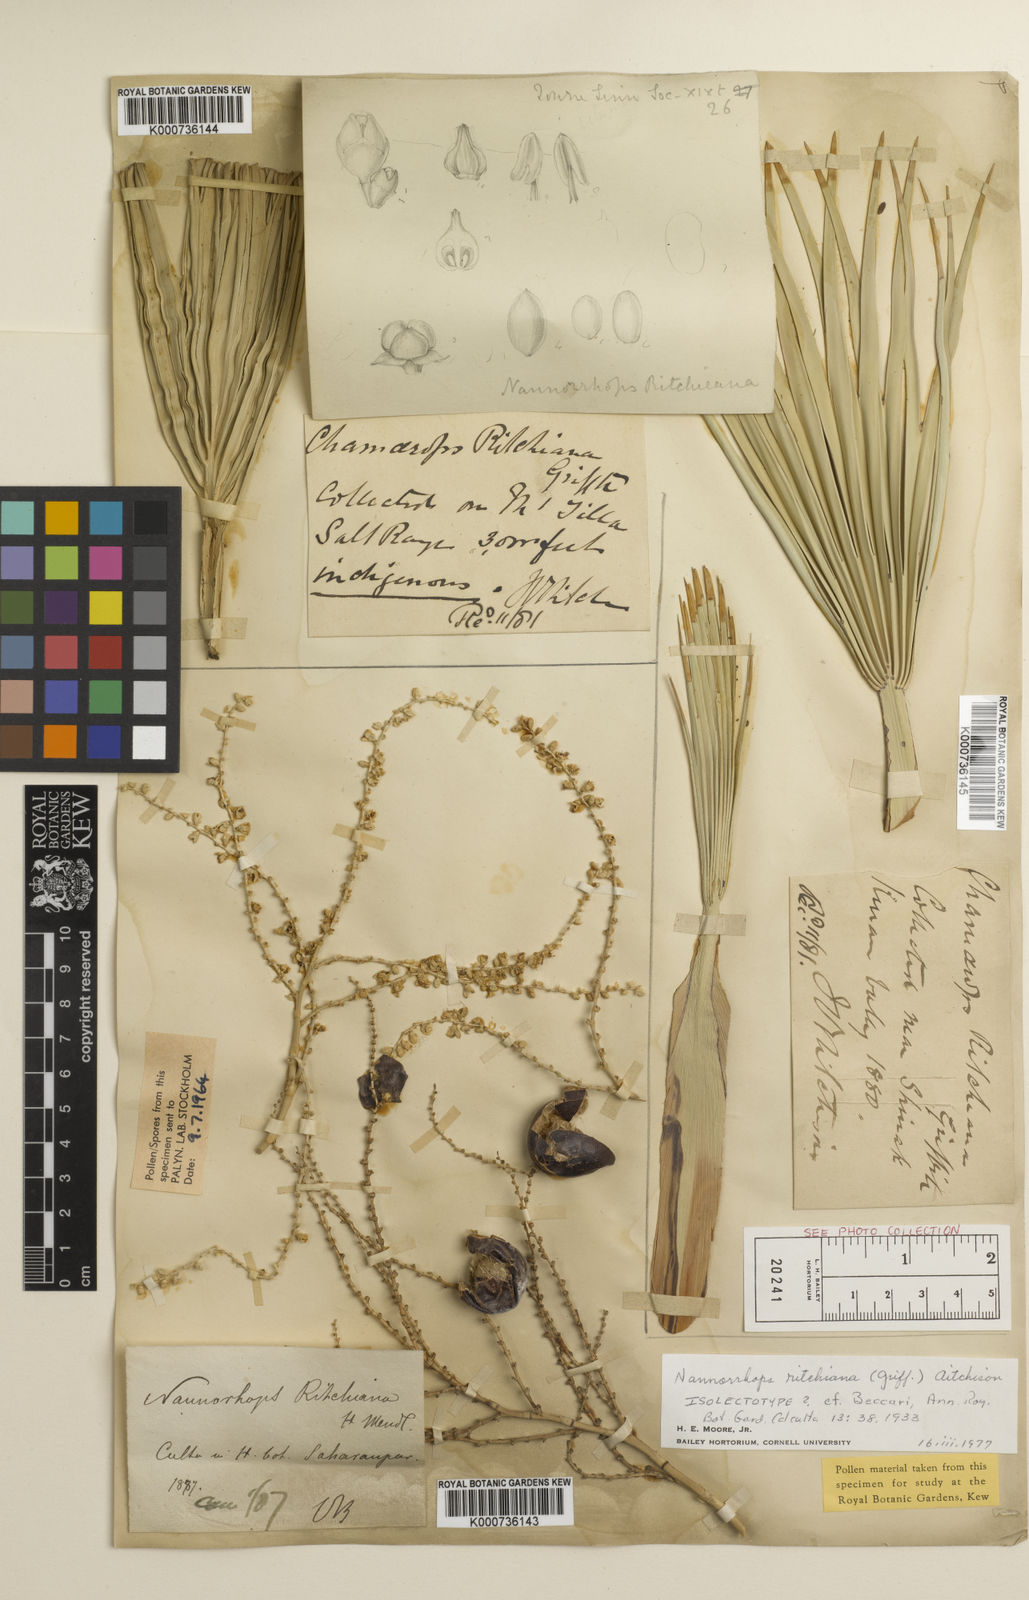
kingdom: Plantae
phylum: Tracheophyta
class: Liliopsida
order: Arecales
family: Arecaceae
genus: Nannorrhops
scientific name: Nannorrhops
